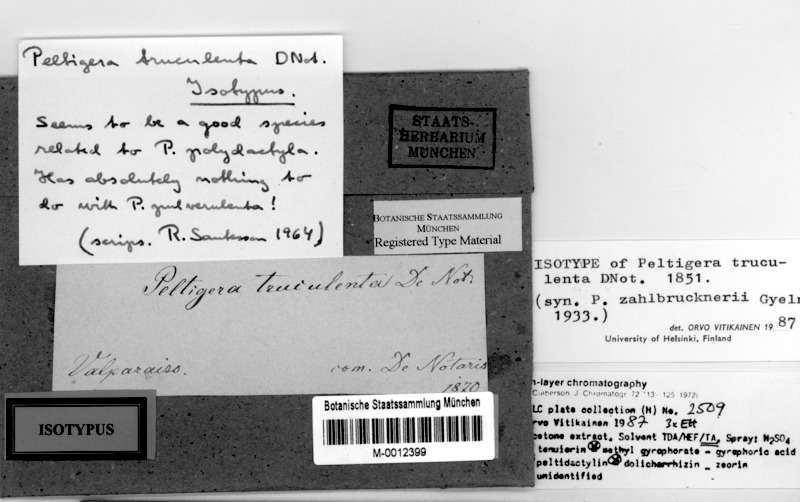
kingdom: Fungi
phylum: Ascomycota
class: Lecanoromycetes
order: Peltigerales
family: Peltigeraceae
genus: Peltigera
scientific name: Peltigera truculenta
